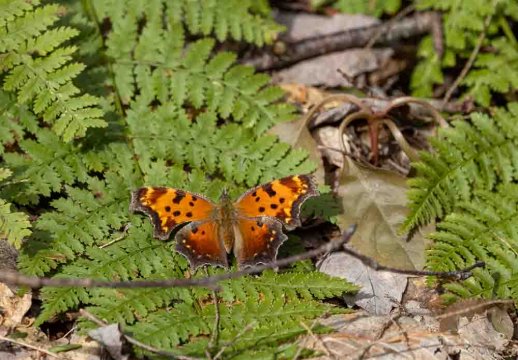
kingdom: Animalia
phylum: Arthropoda
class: Insecta
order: Lepidoptera
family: Nymphalidae
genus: Polygonia
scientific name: Polygonia progne
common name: Gray Comma
